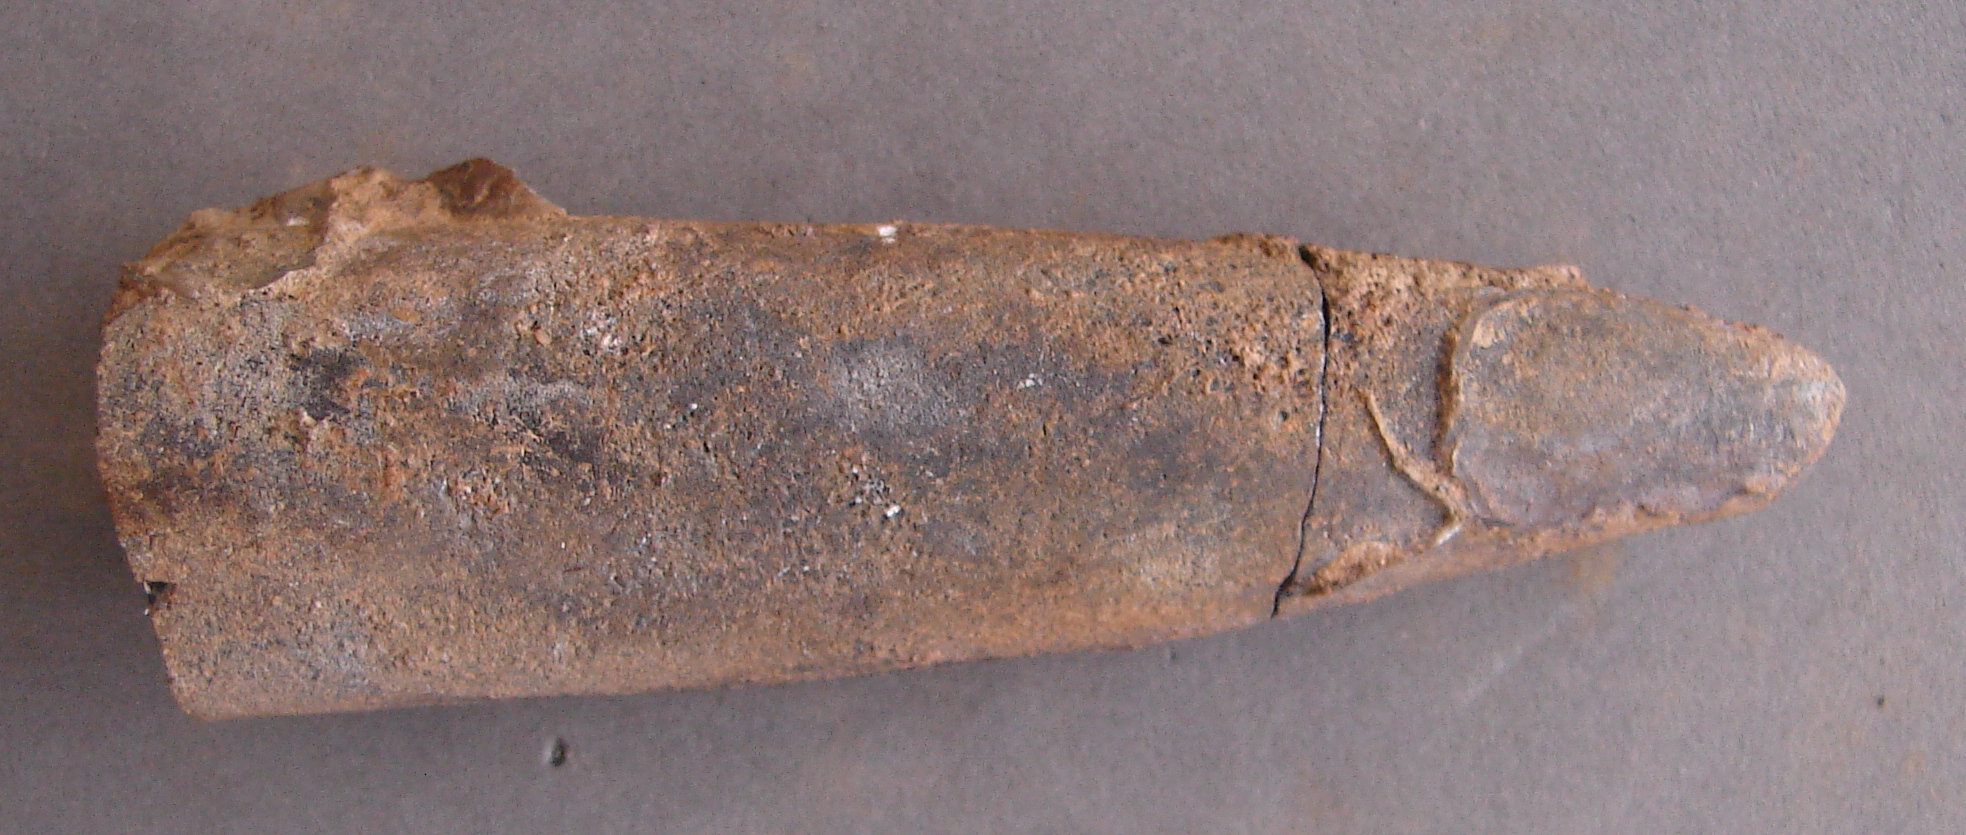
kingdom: Animalia
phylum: Mollusca
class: Cephalopoda
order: Belemnitida
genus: Homaloteuthis
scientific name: Homaloteuthis
